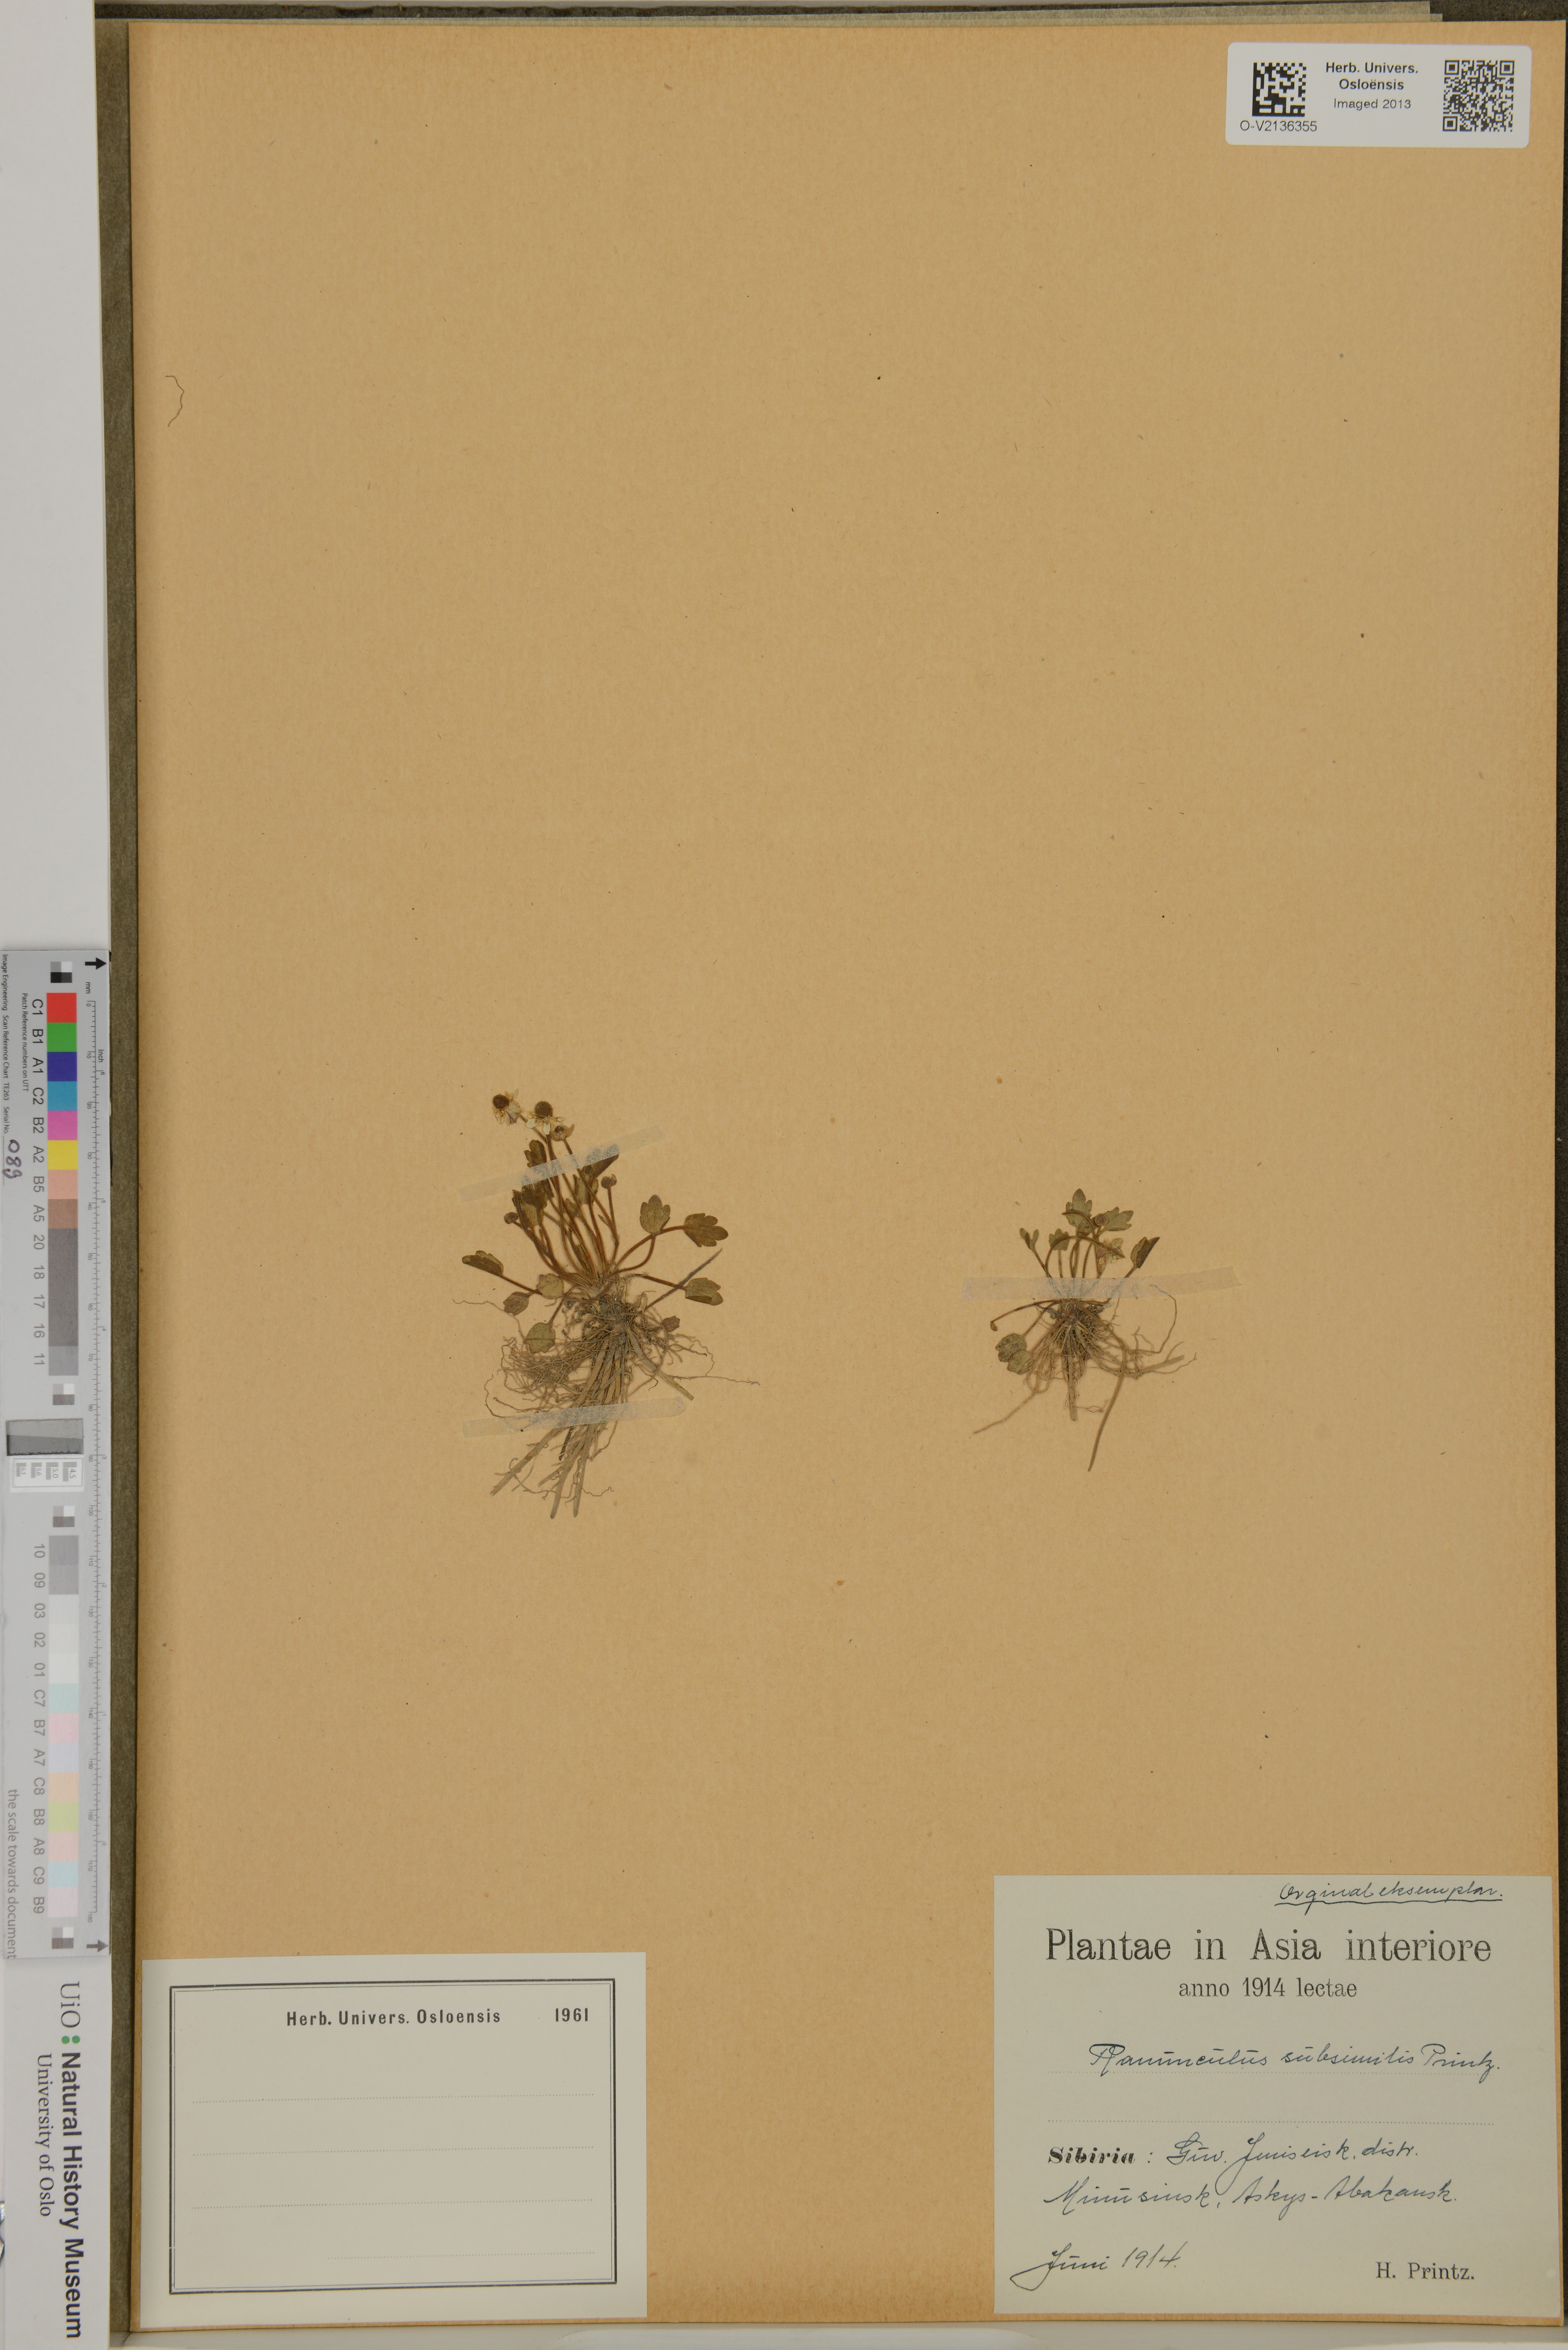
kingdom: Plantae
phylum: Tracheophyta
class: Magnoliopsida
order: Ranunculales
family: Ranunculaceae
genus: Halerpestes
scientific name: Halerpestes sarmentosus
